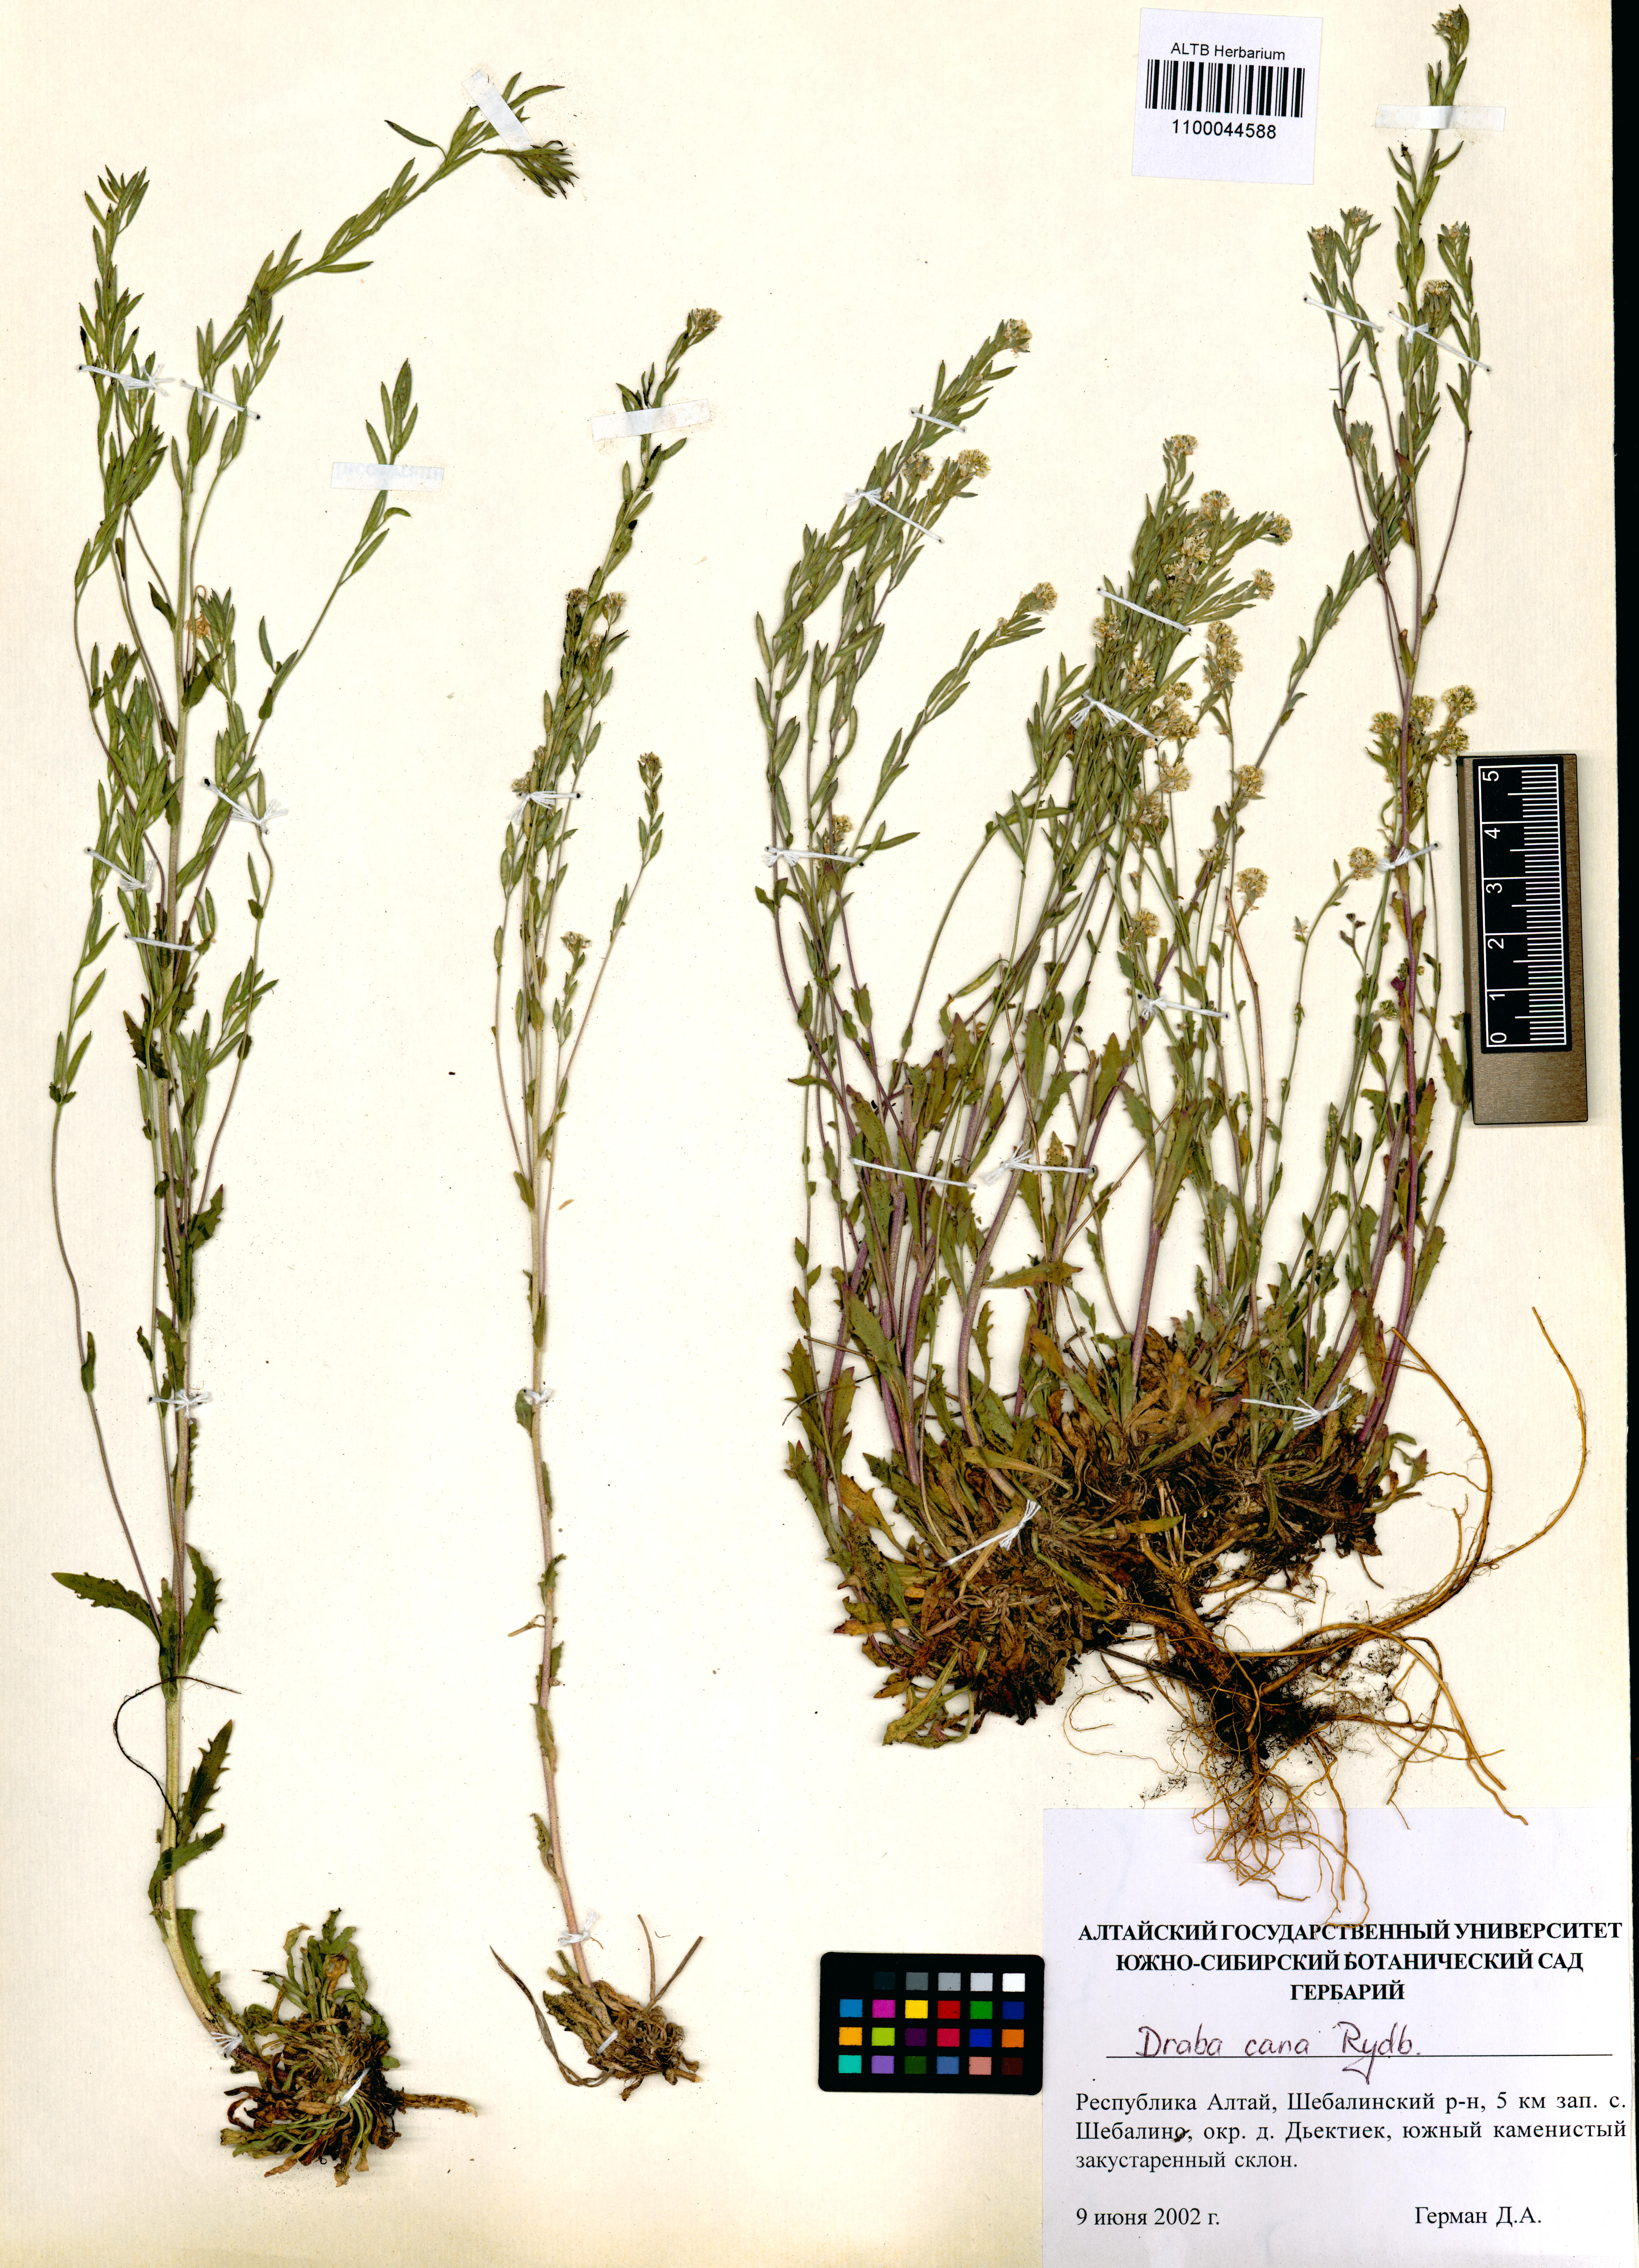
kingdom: Plantae
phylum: Tracheophyta
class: Magnoliopsida
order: Brassicales
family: Brassicaceae
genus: Draba
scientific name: Draba cana
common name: Hoary draba
